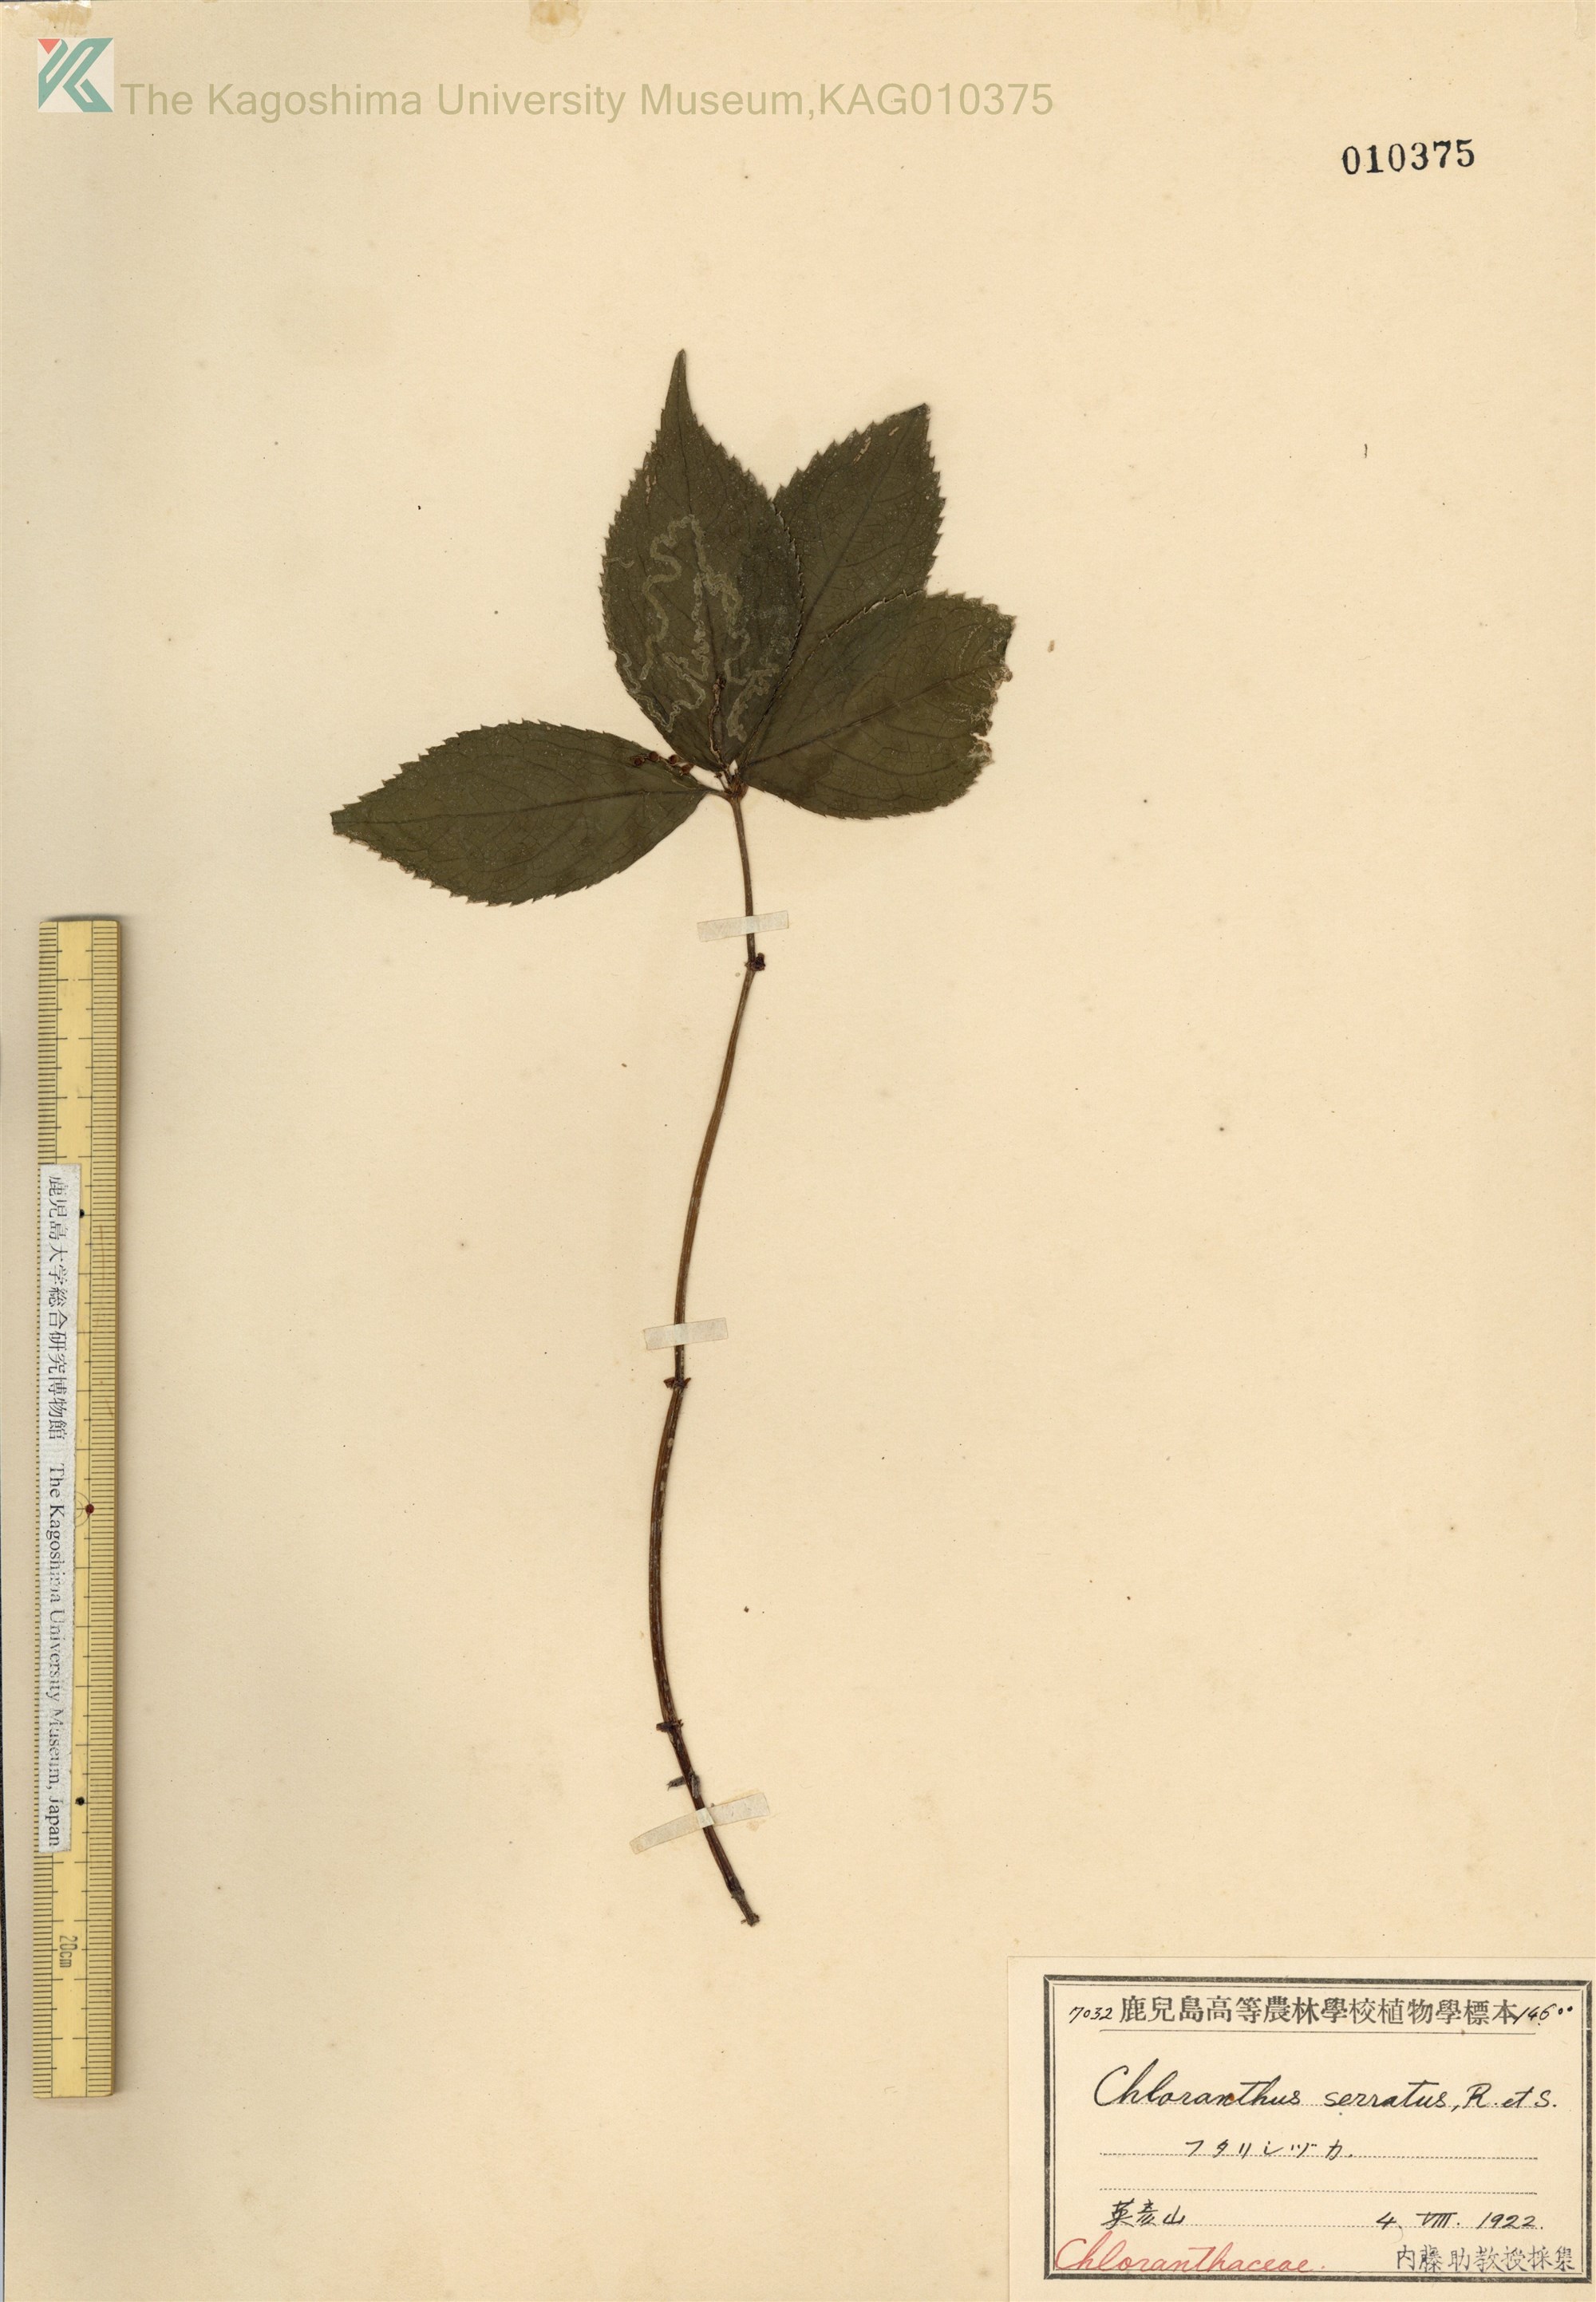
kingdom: Plantae
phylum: Tracheophyta
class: Magnoliopsida
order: Chloranthales
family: Chloranthaceae
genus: Chloranthus
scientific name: Chloranthus serratus
